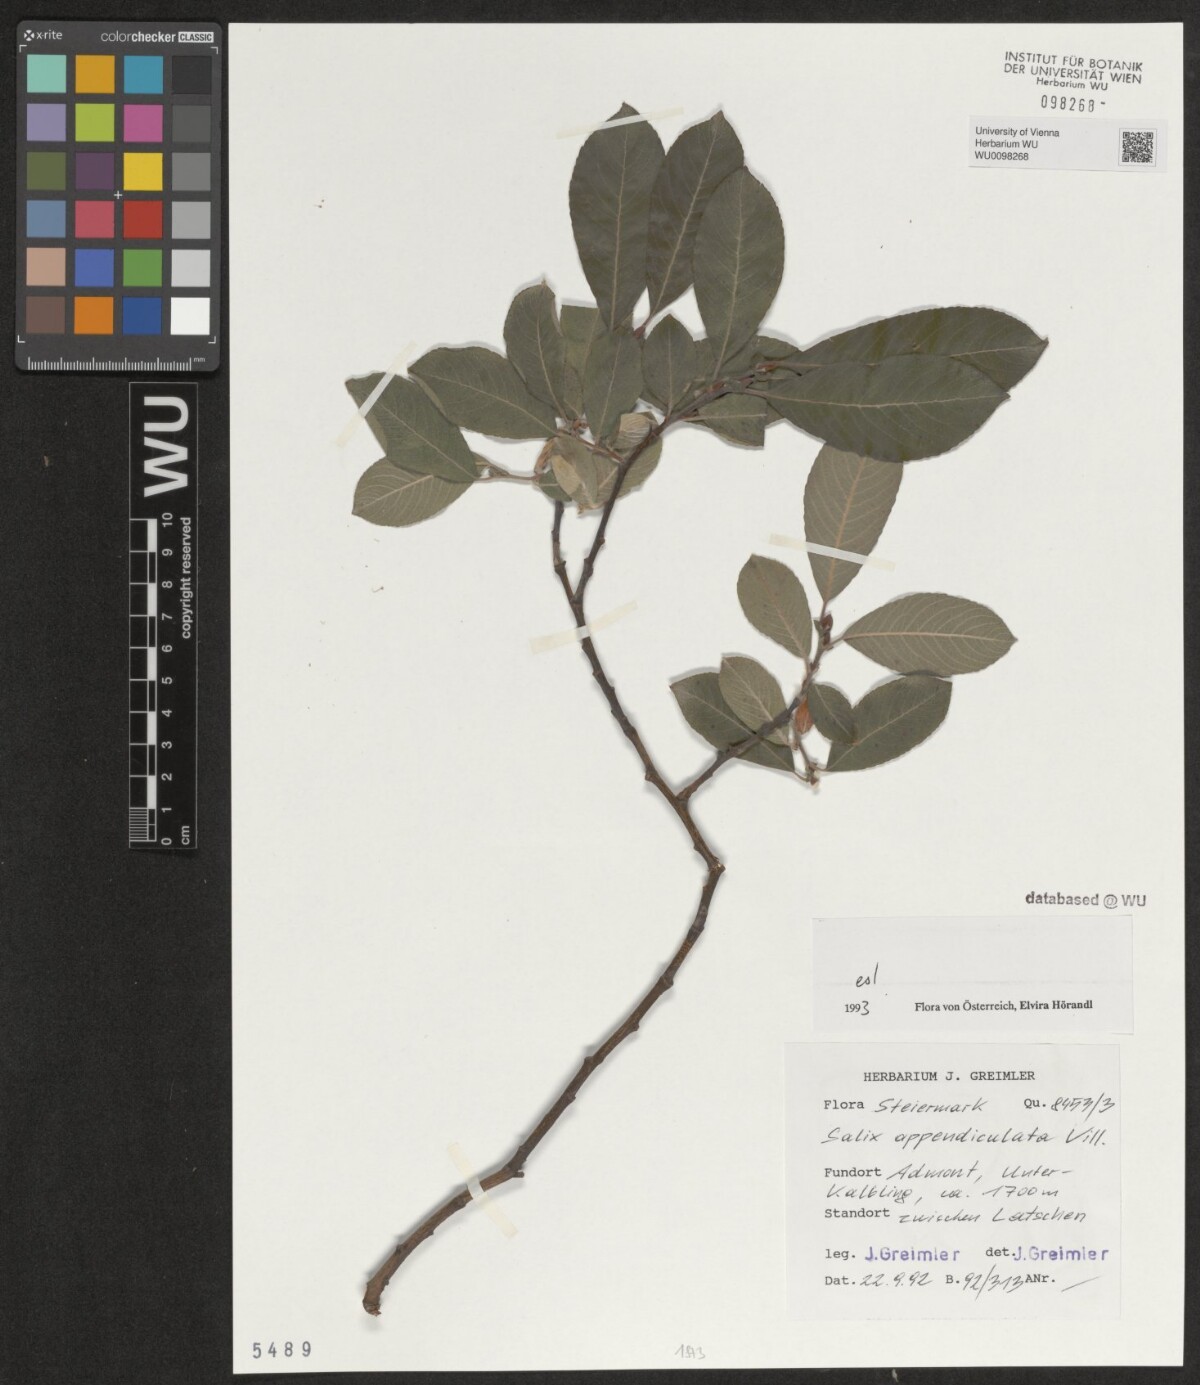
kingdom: Plantae
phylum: Tracheophyta
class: Magnoliopsida
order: Malpighiales
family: Salicaceae
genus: Salix
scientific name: Salix appendiculata
